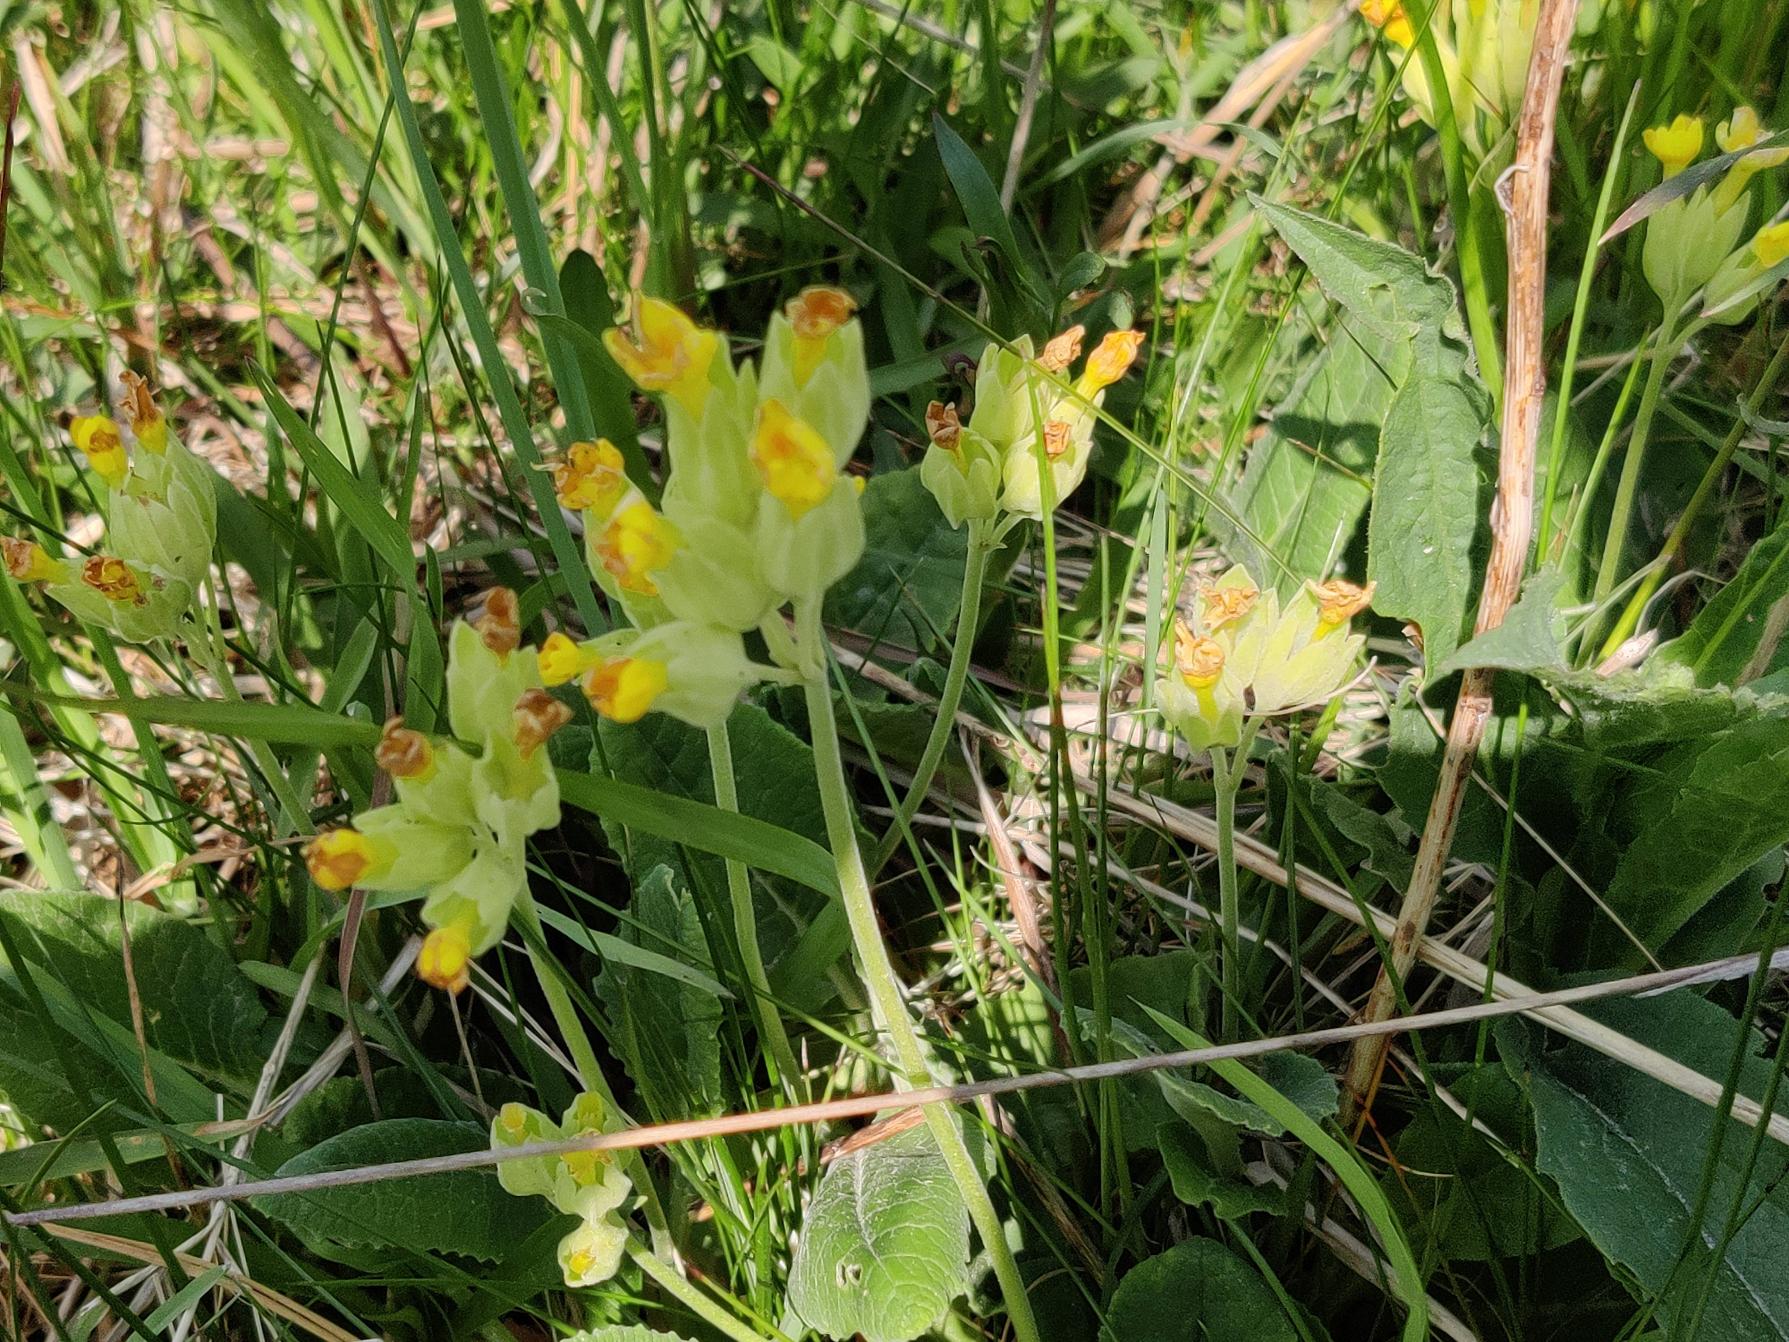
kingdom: Plantae
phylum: Tracheophyta
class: Magnoliopsida
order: Ericales
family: Primulaceae
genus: Primula
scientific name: Primula veris
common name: Hulkravet kodriver
